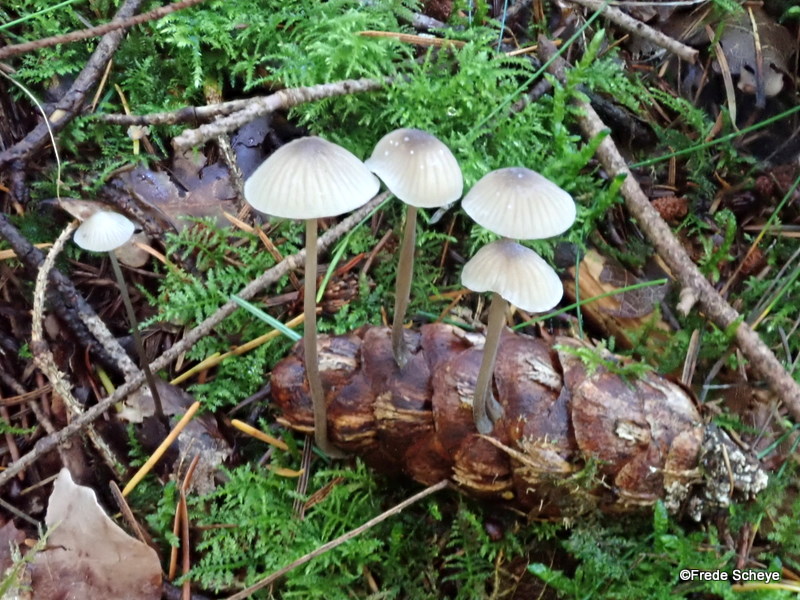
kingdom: Fungi
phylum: Basidiomycota
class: Agaricomycetes
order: Agaricales
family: Mycenaceae
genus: Mycena
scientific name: Mycena galopus
